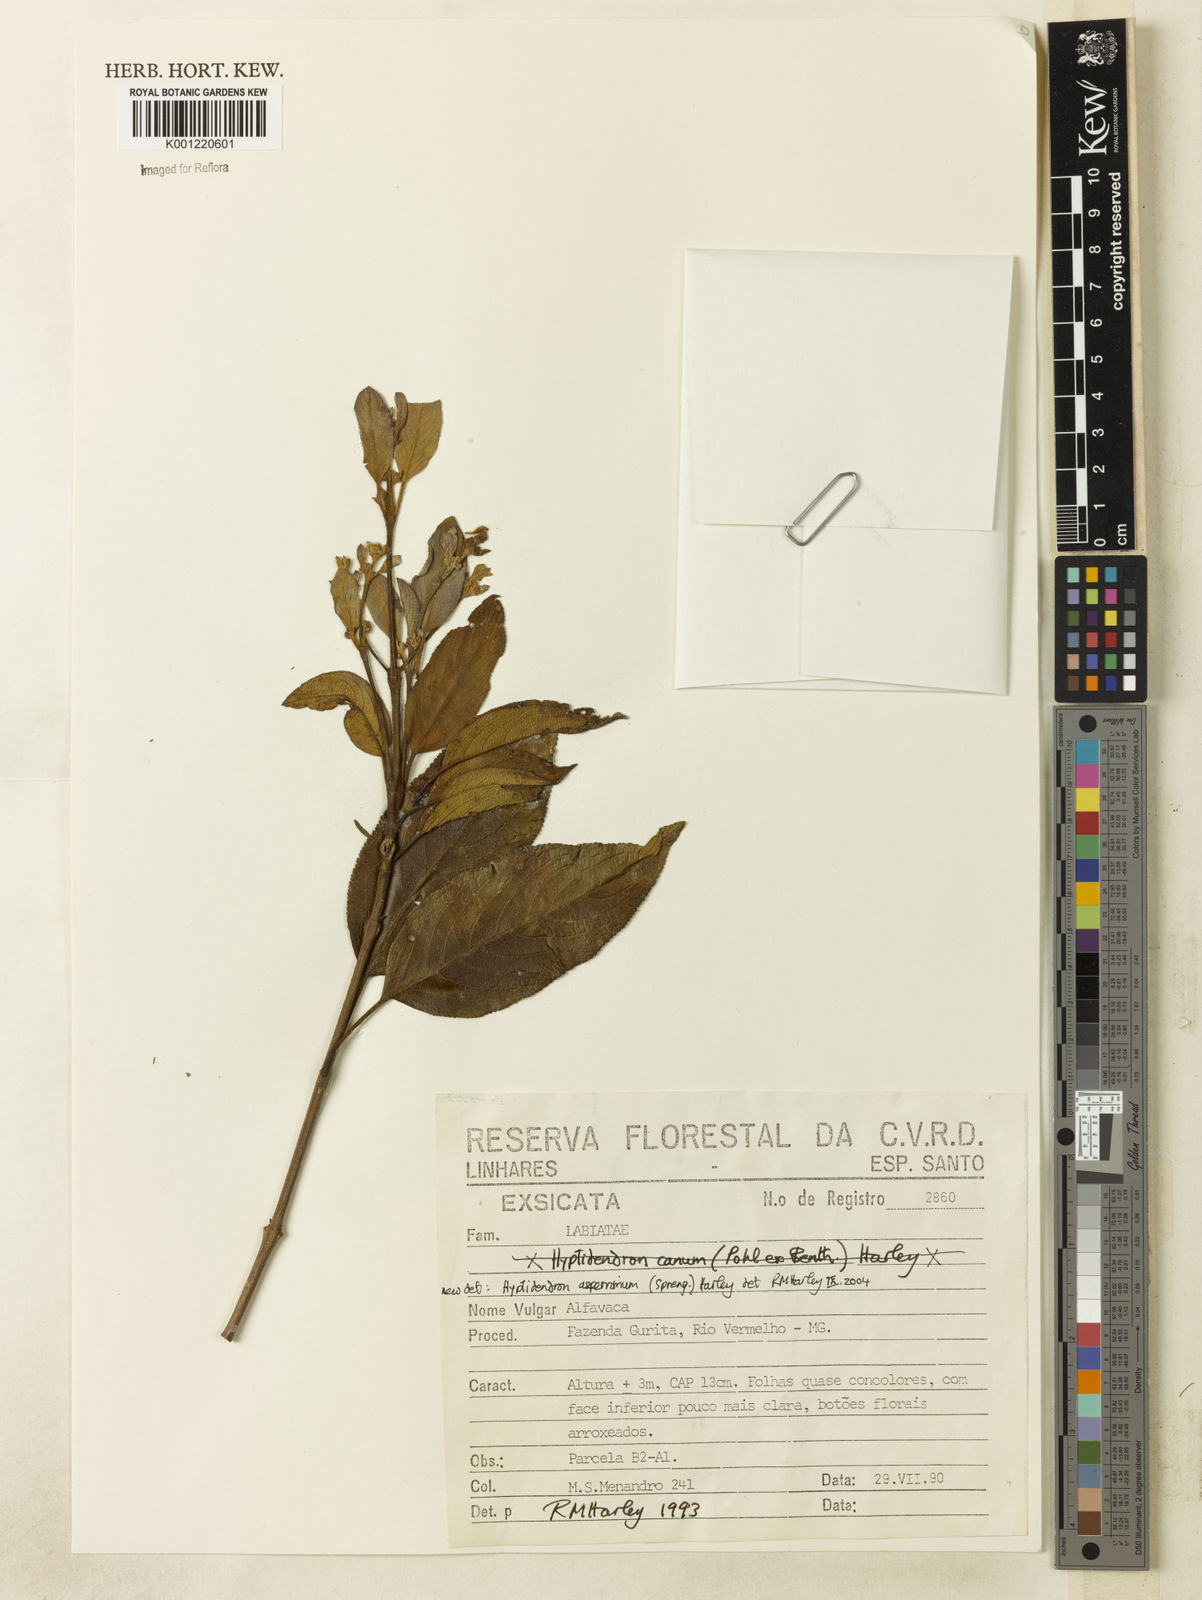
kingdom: Plantae
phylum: Tracheophyta
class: Magnoliopsida
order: Lamiales
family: Lamiaceae
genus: Hyptidendron
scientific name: Hyptidendron asperrimum
